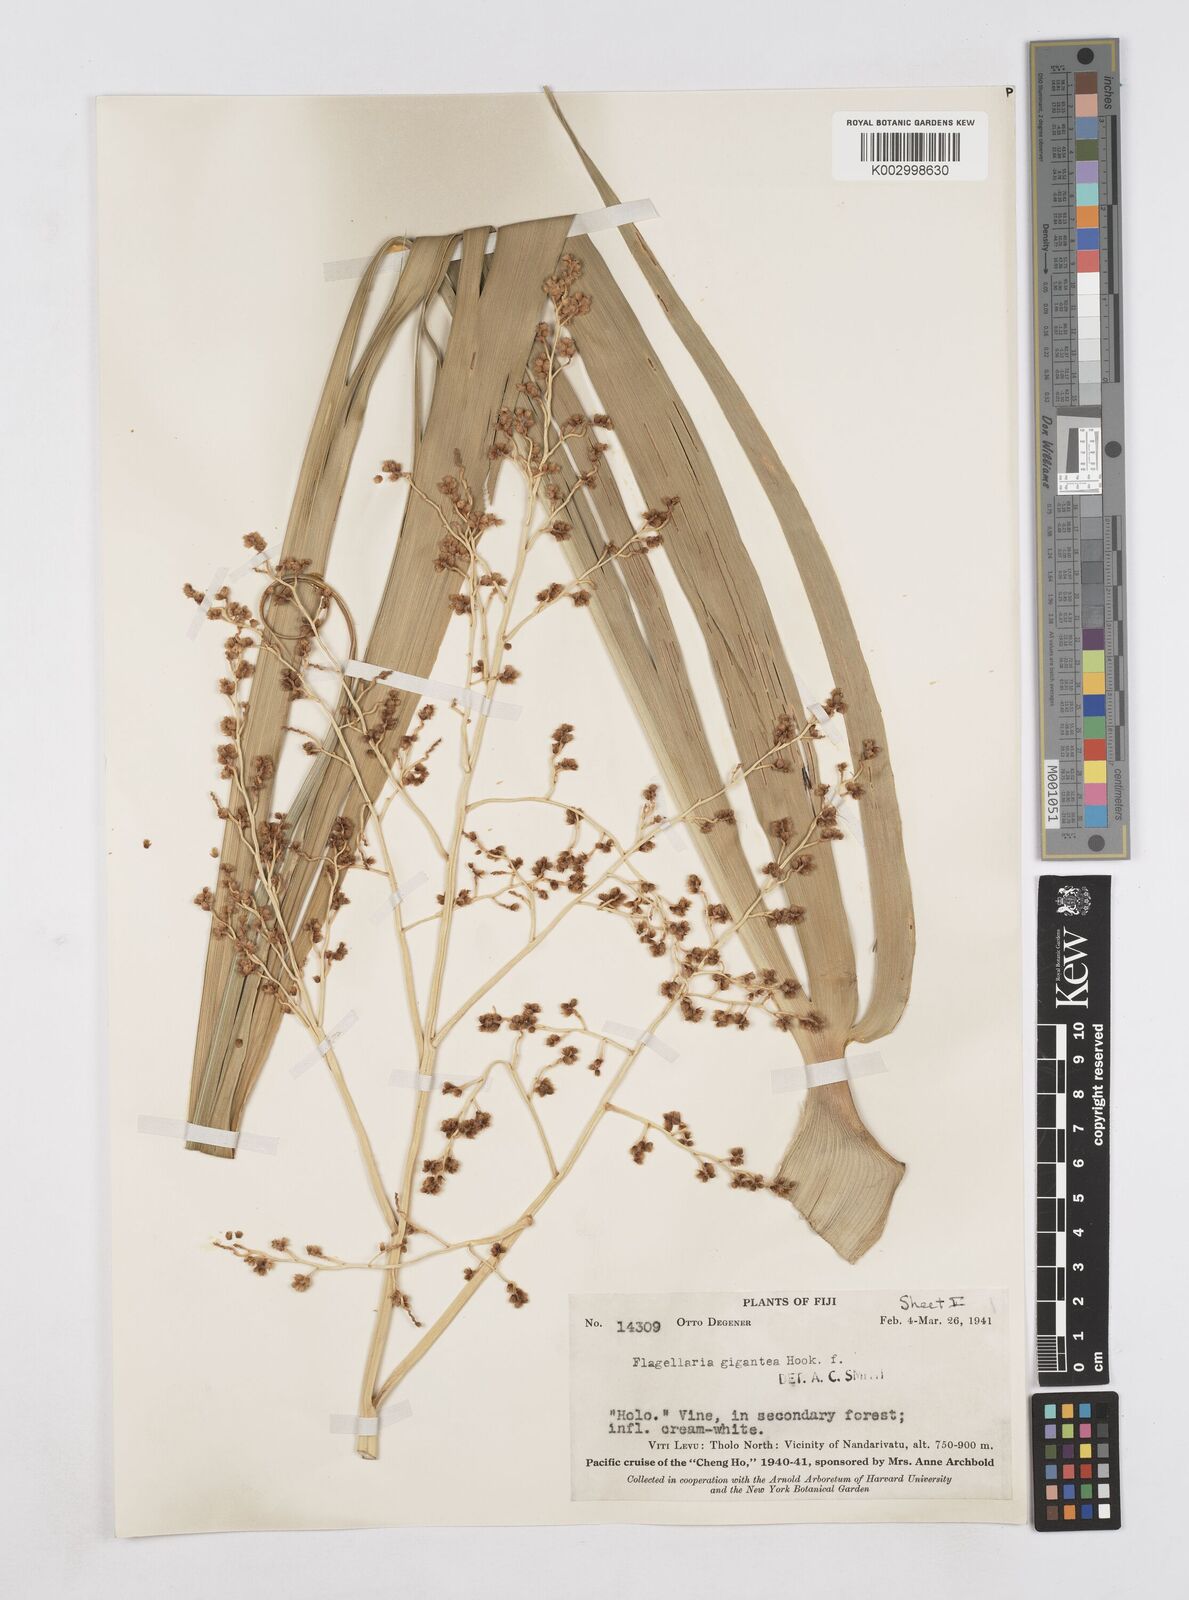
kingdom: Plantae
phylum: Tracheophyta
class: Liliopsida
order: Poales
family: Flagellariaceae
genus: Flagellaria
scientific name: Flagellaria gigantea
